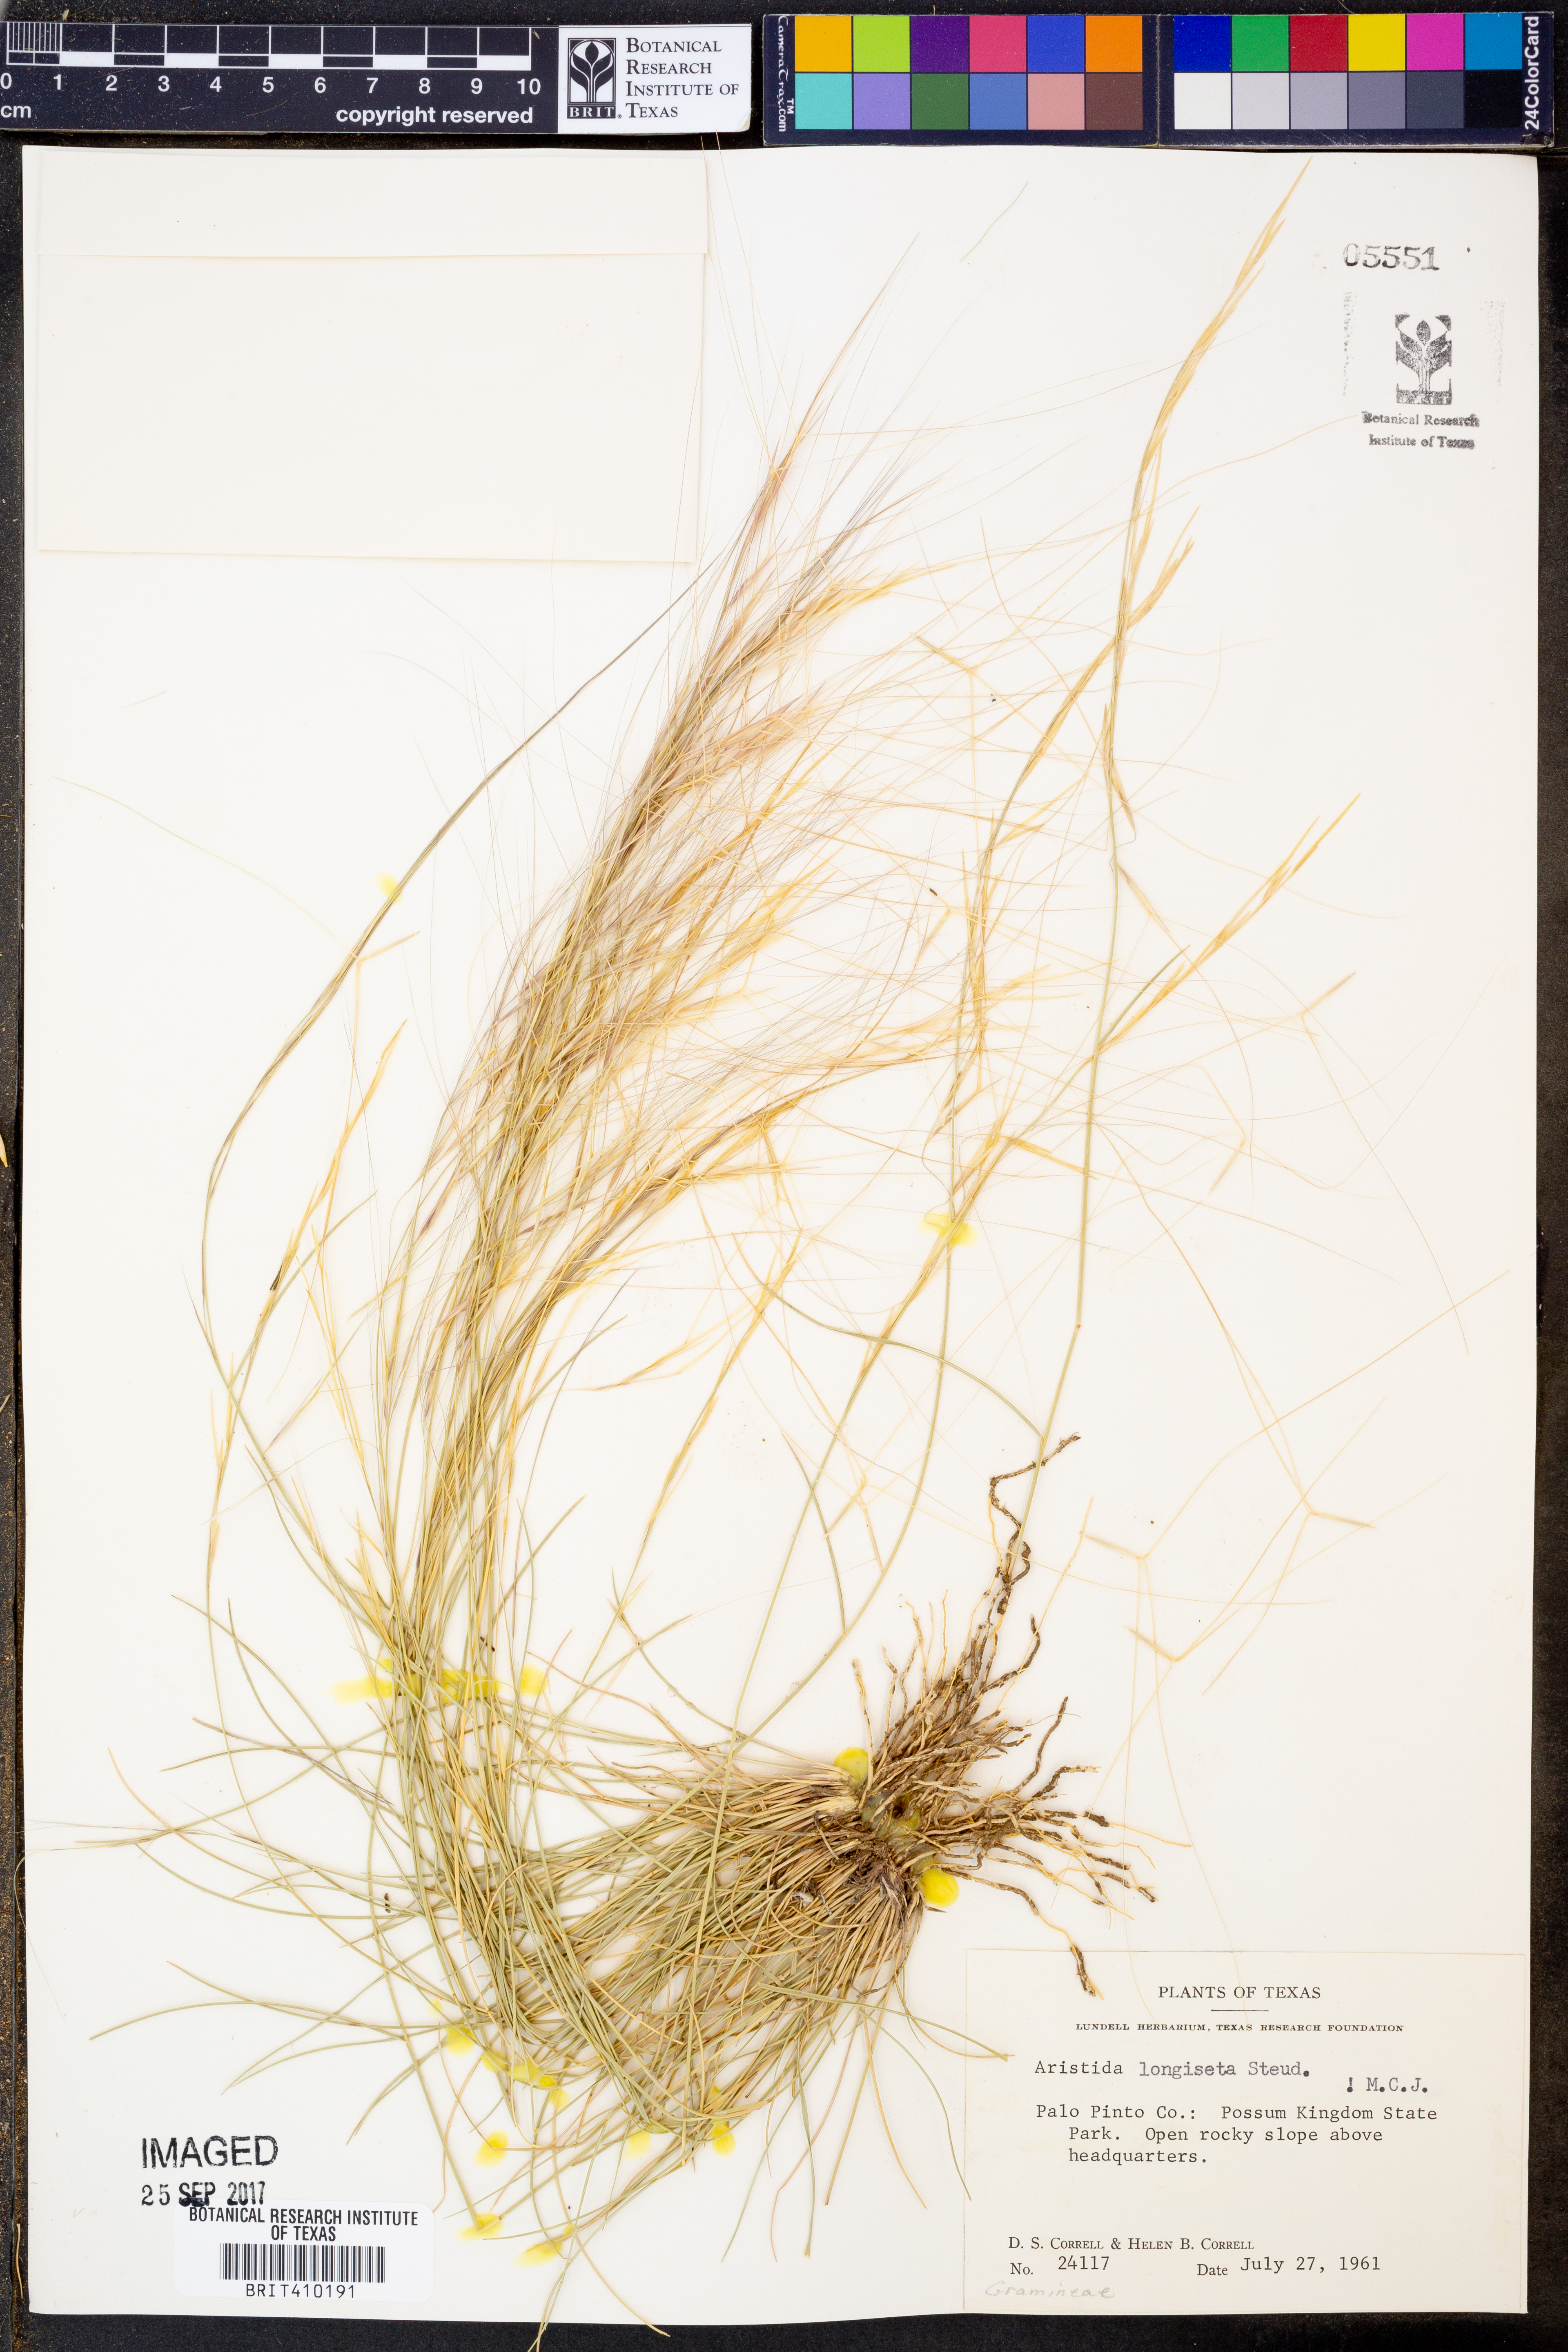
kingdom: Plantae
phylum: Tracheophyta
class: Liliopsida
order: Poales
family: Poaceae
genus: Aristida
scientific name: Aristida longiseta
